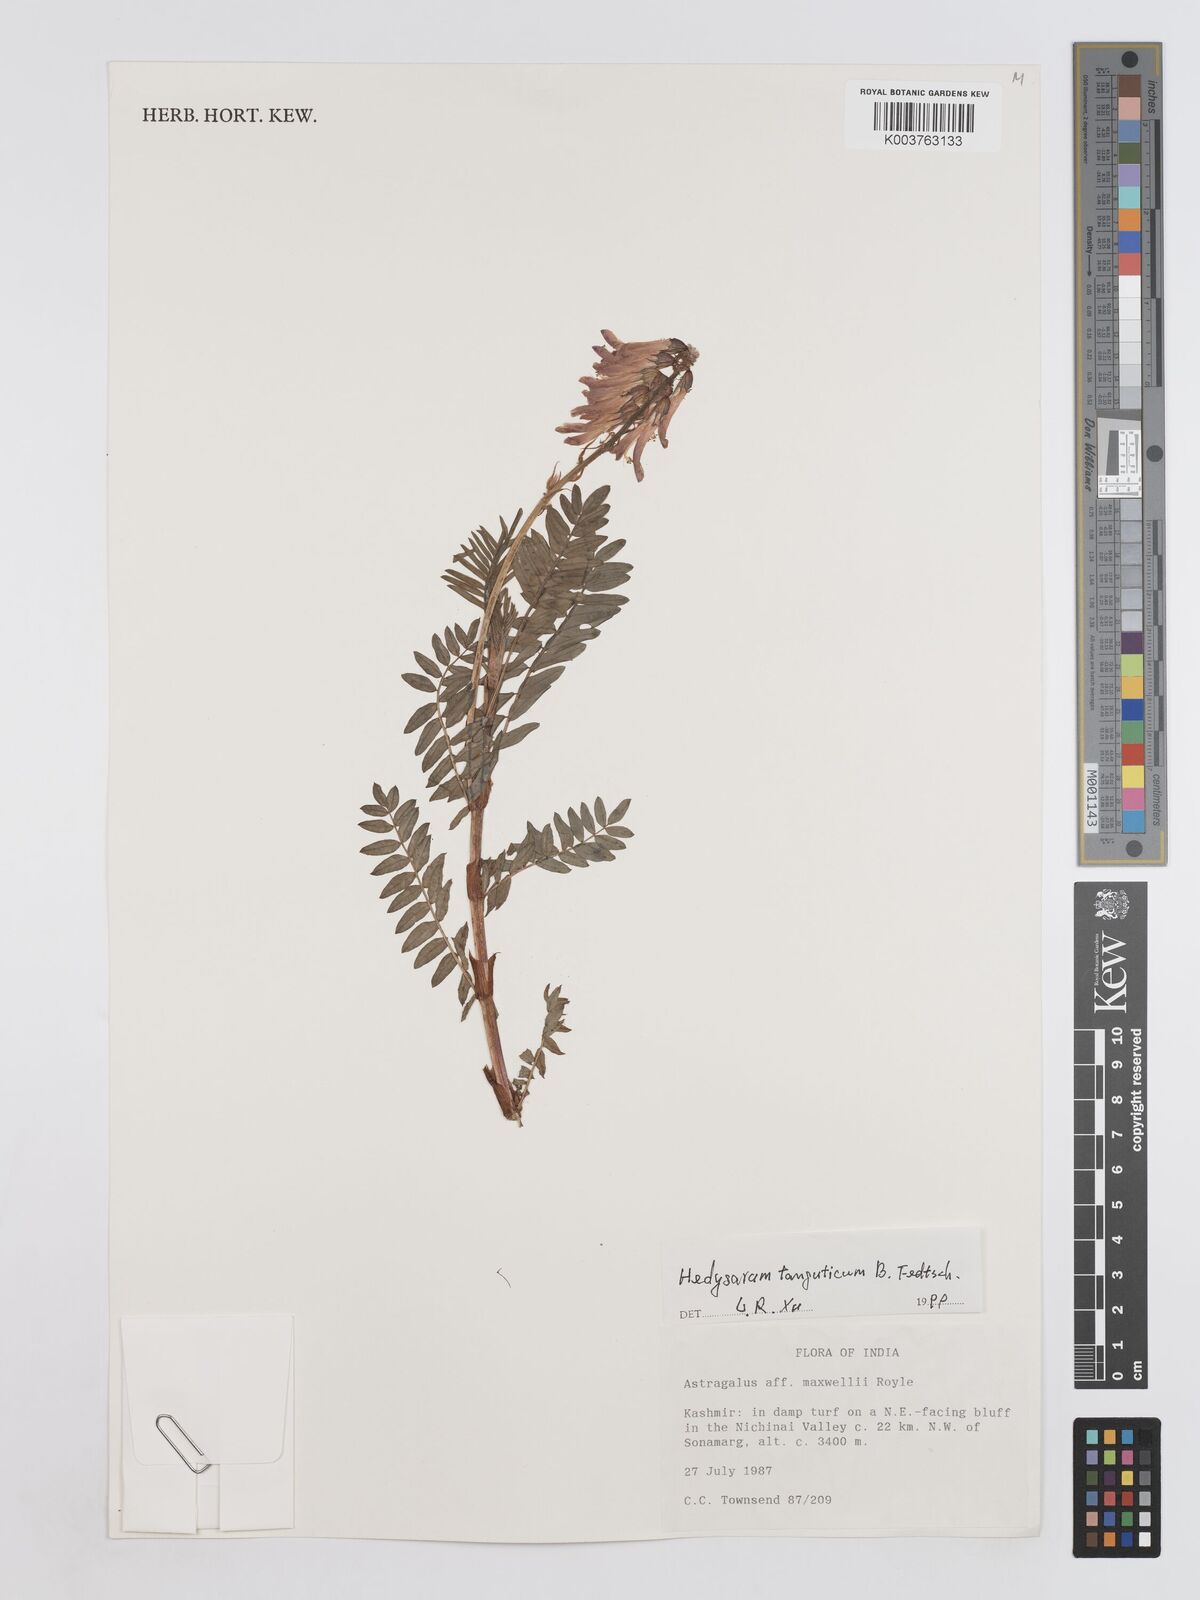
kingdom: Plantae
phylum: Tracheophyta
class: Magnoliopsida
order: Fabales
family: Fabaceae
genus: Hedysarum
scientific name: Hedysarum tanguticum
